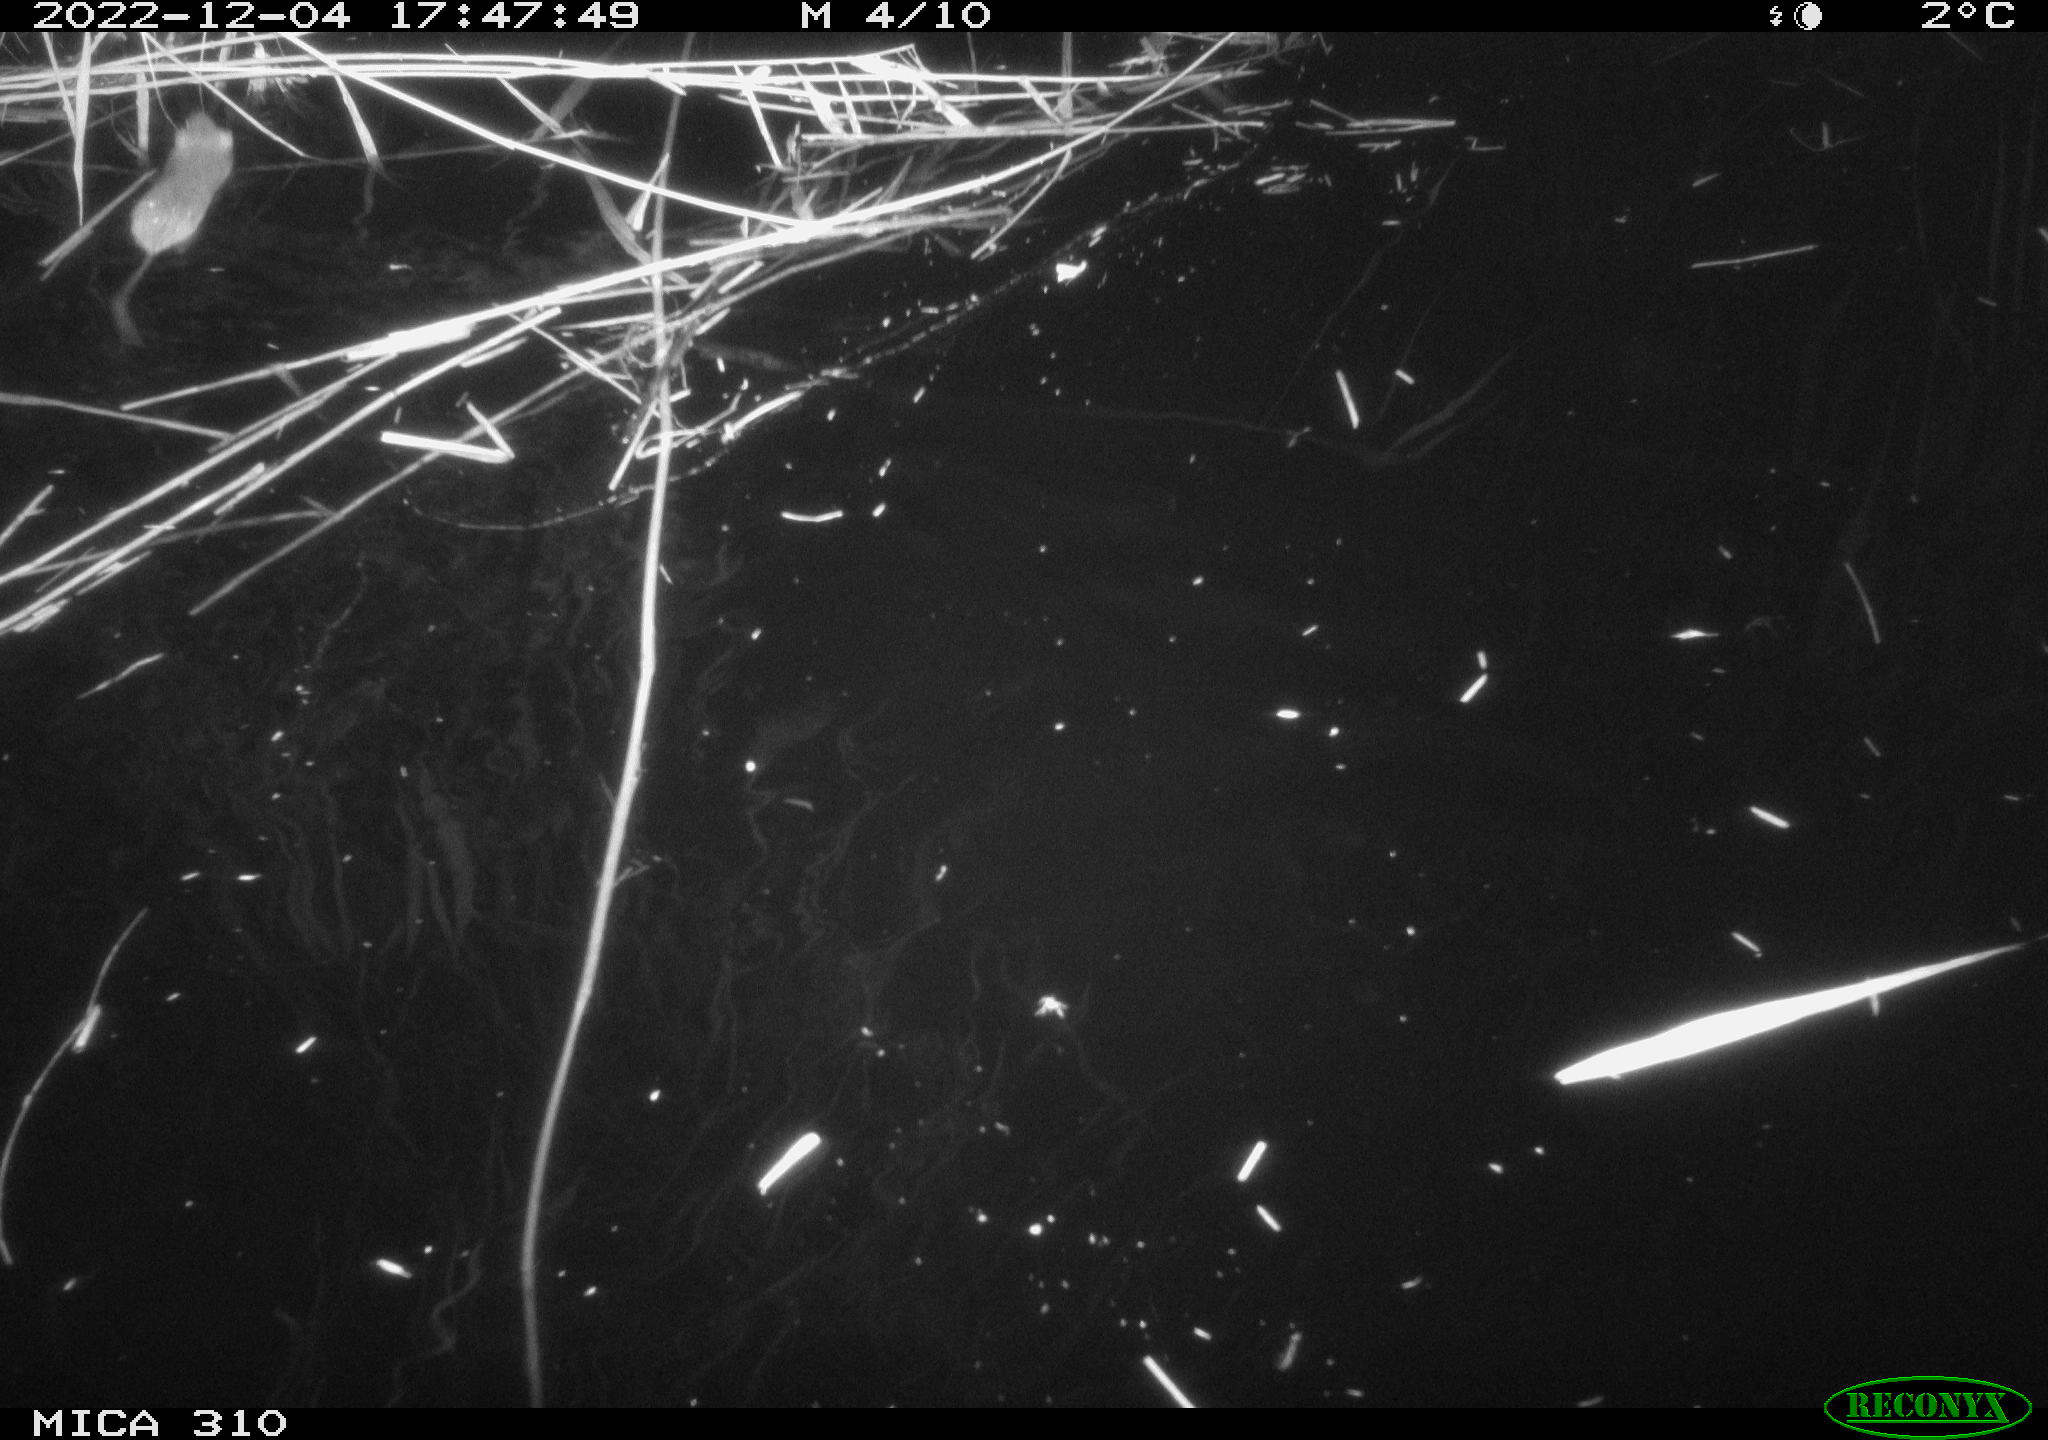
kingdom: Animalia
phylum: Chordata
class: Mammalia
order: Rodentia
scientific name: Rodentia
